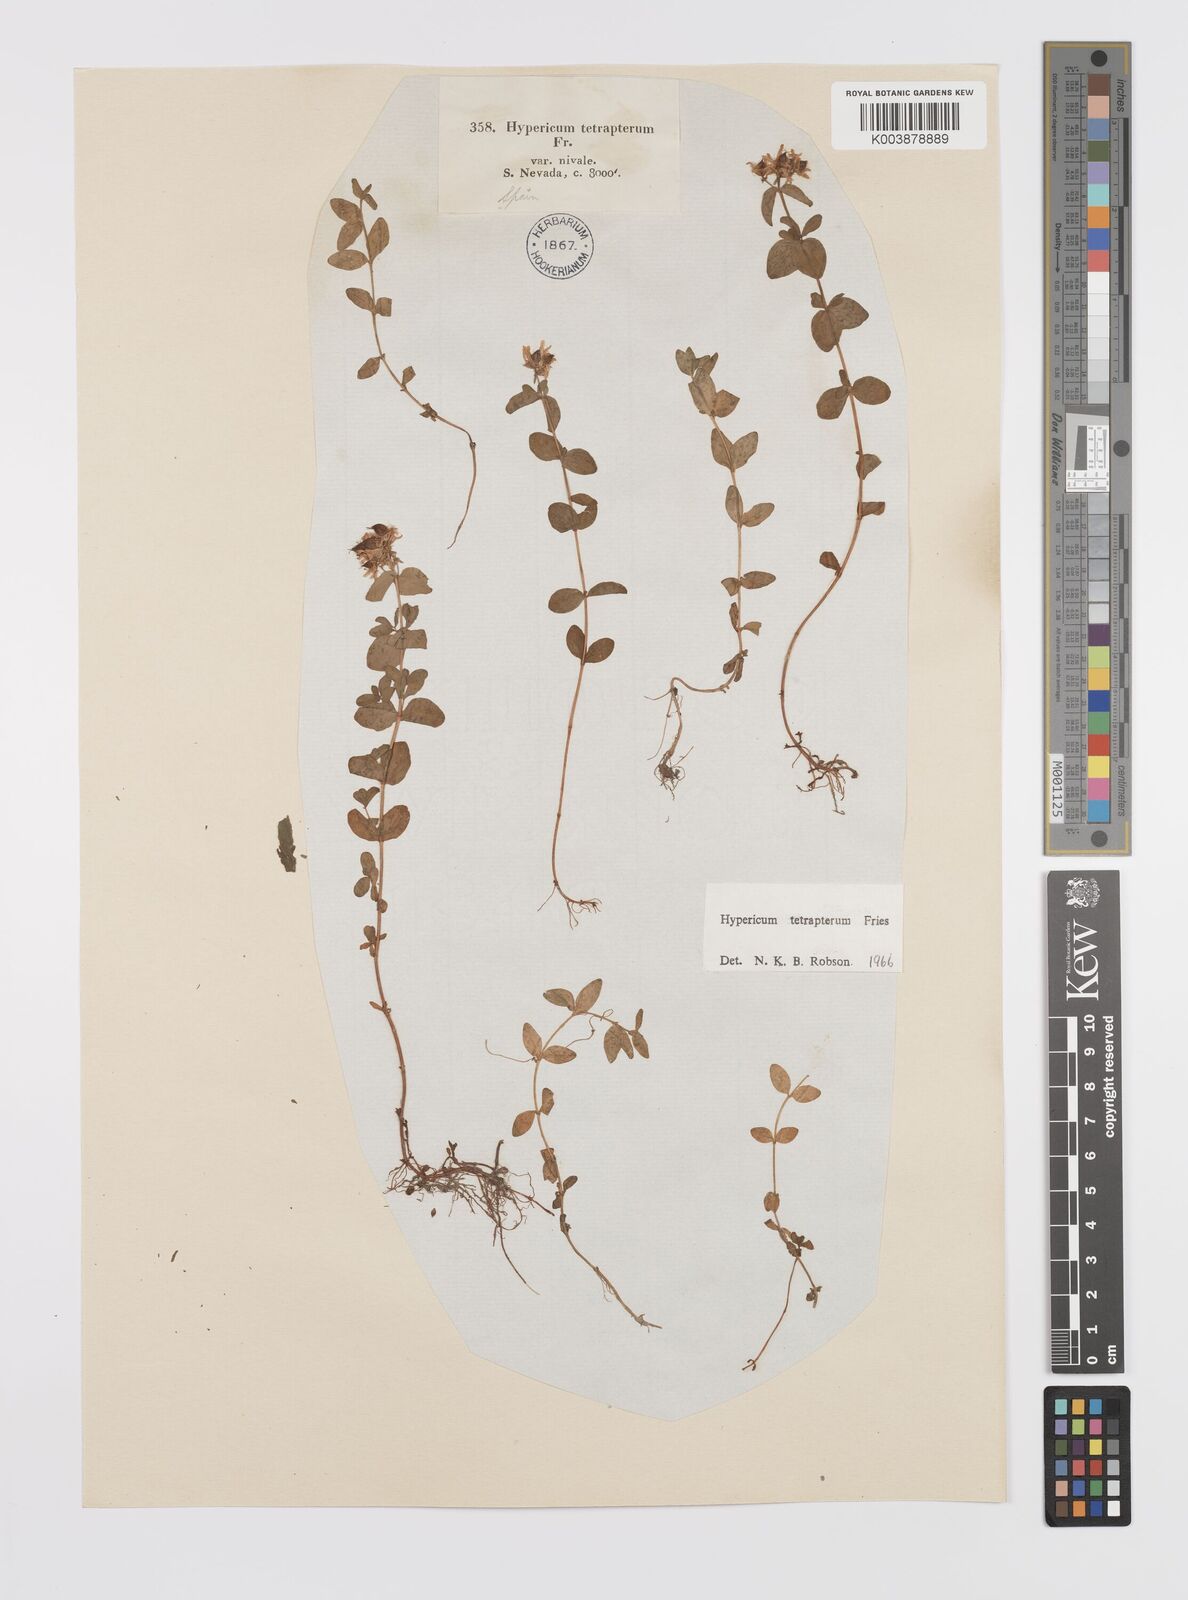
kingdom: Plantae
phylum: Tracheophyta
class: Magnoliopsida
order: Malpighiales
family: Hypericaceae
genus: Hypericum
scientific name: Hypericum tetrapterum
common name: Square-stalked st. john's-wort
